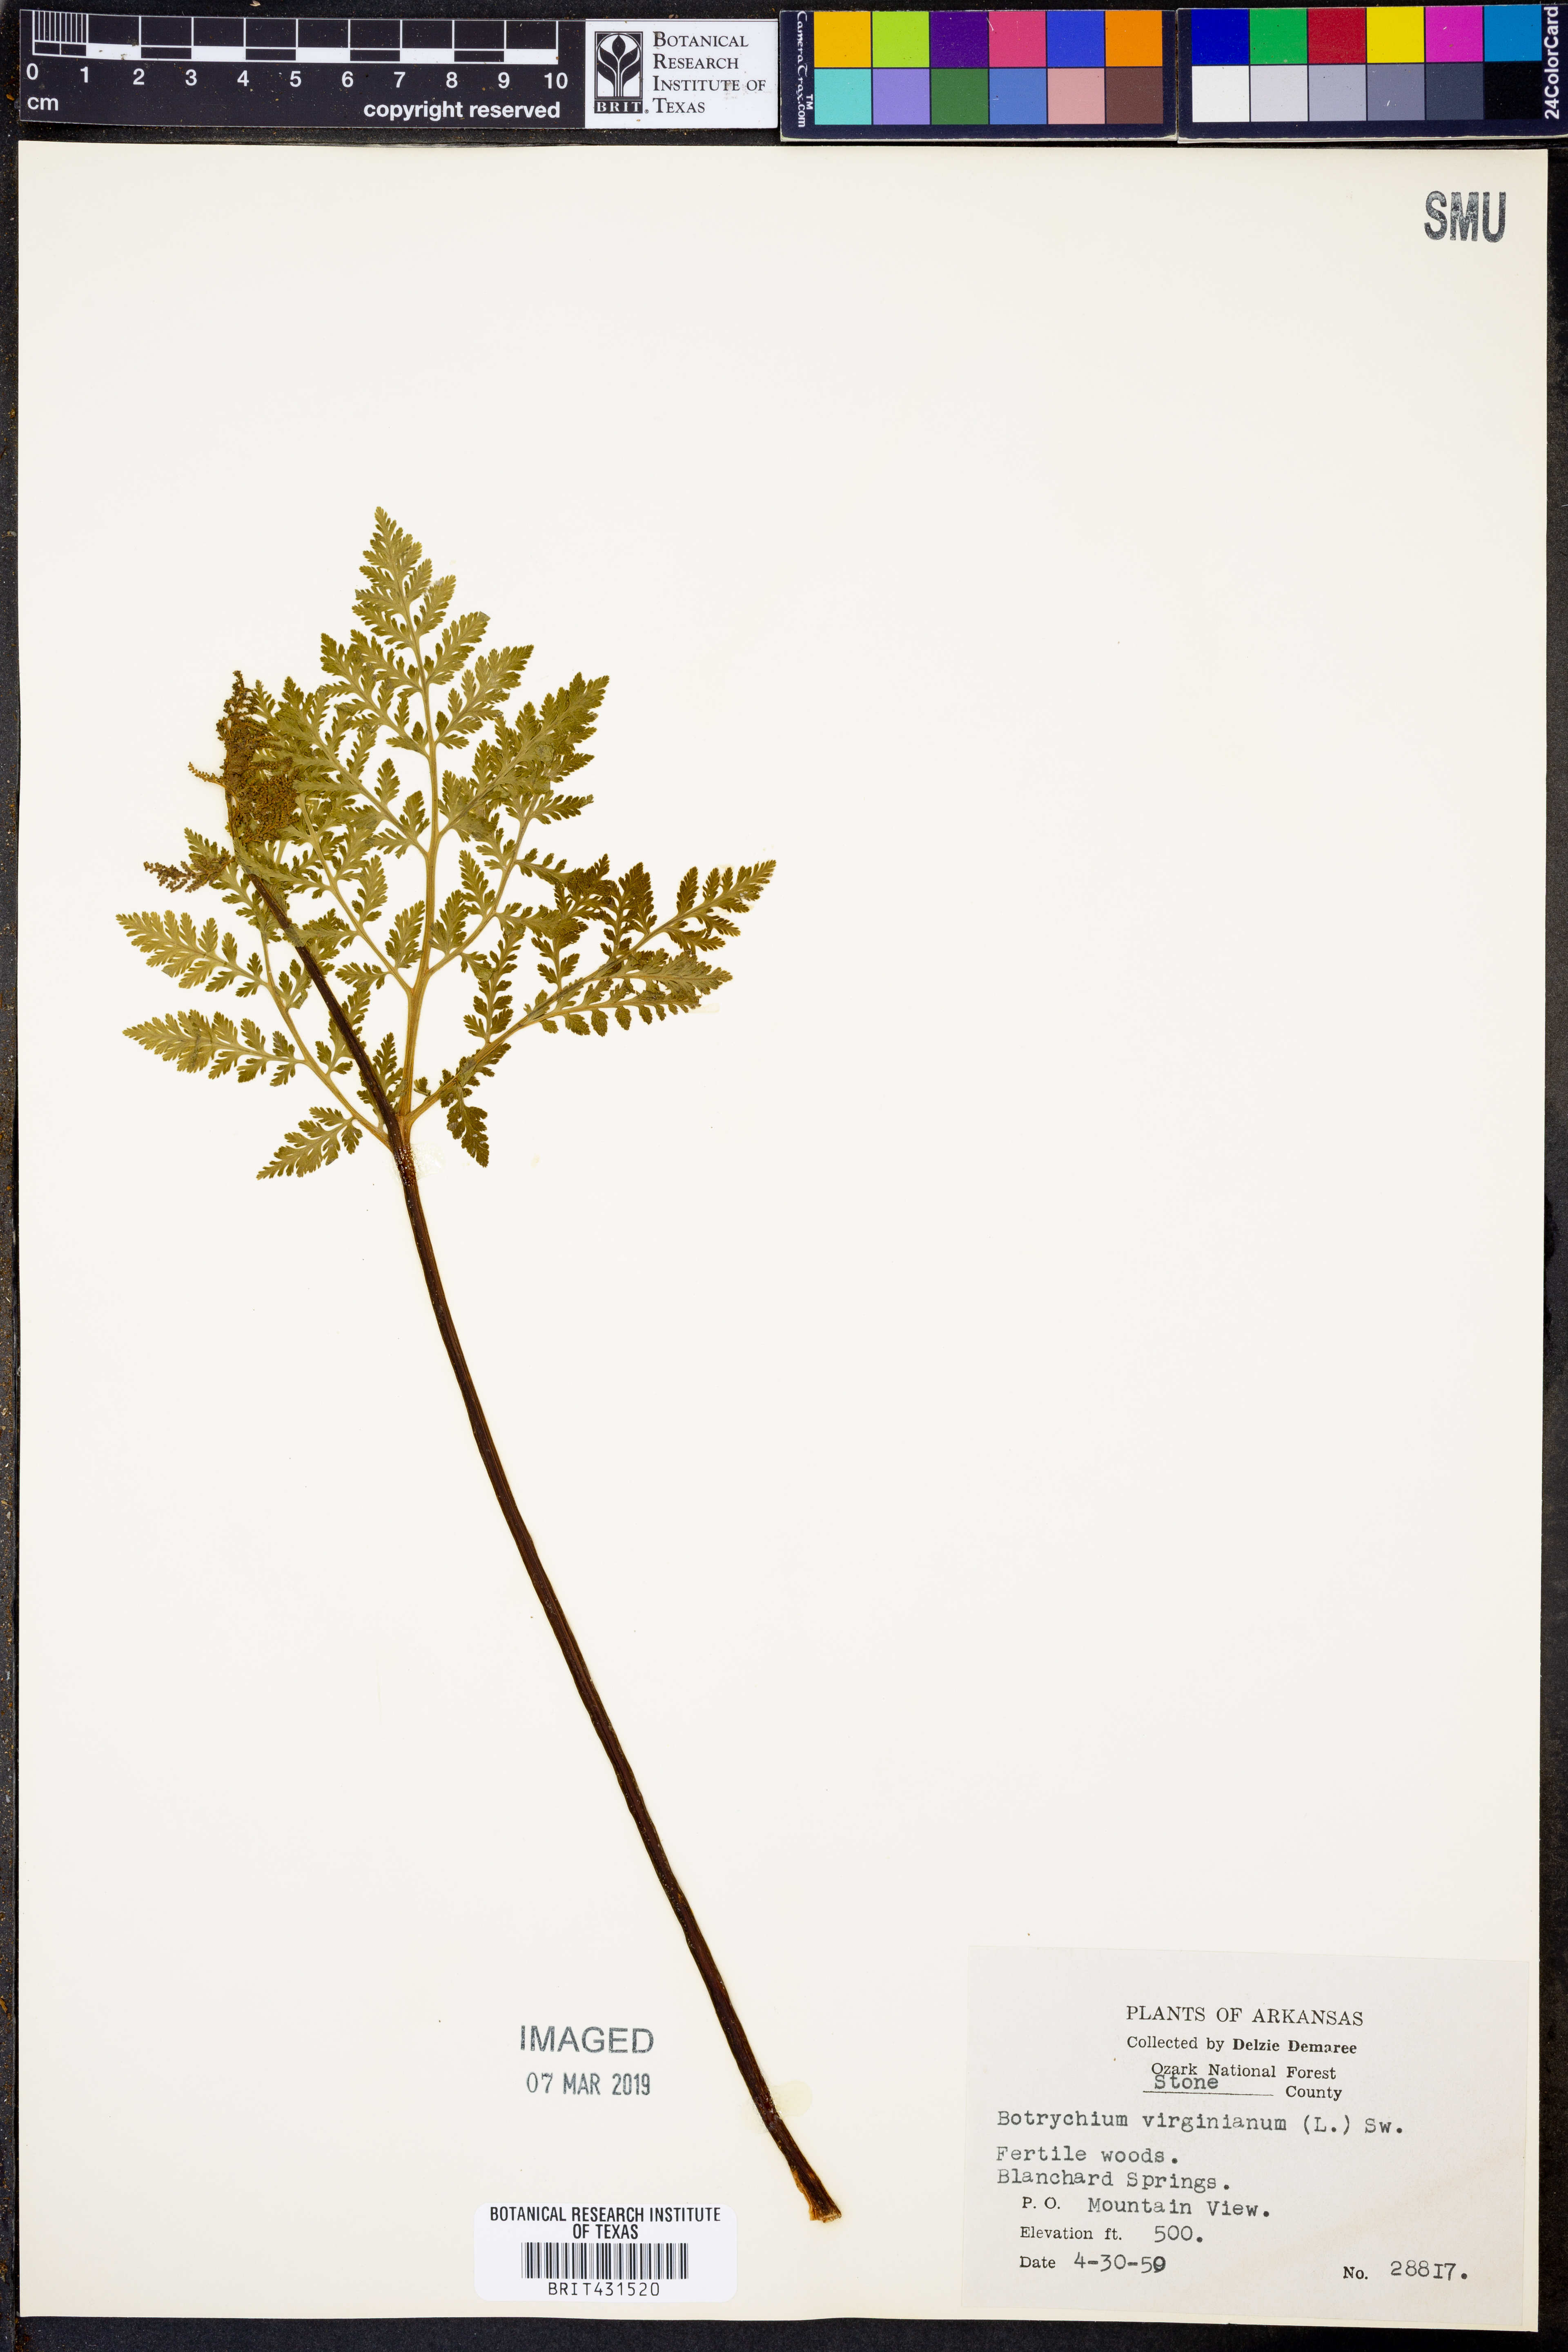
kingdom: Plantae
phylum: Tracheophyta
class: Polypodiopsida
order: Ophioglossales
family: Ophioglossaceae
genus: Botrypus
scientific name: Botrypus virginianus
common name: Common grapefern
